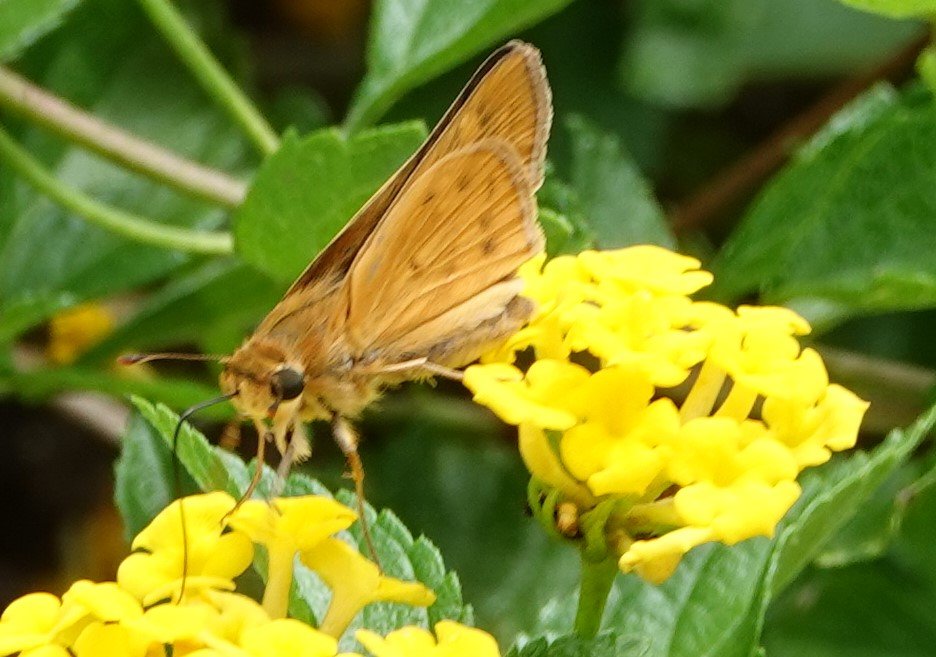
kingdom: Animalia
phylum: Arthropoda
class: Insecta
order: Lepidoptera
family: Hesperiidae
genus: Hylephila
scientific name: Hylephila phyleus
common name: Fiery Skipper
